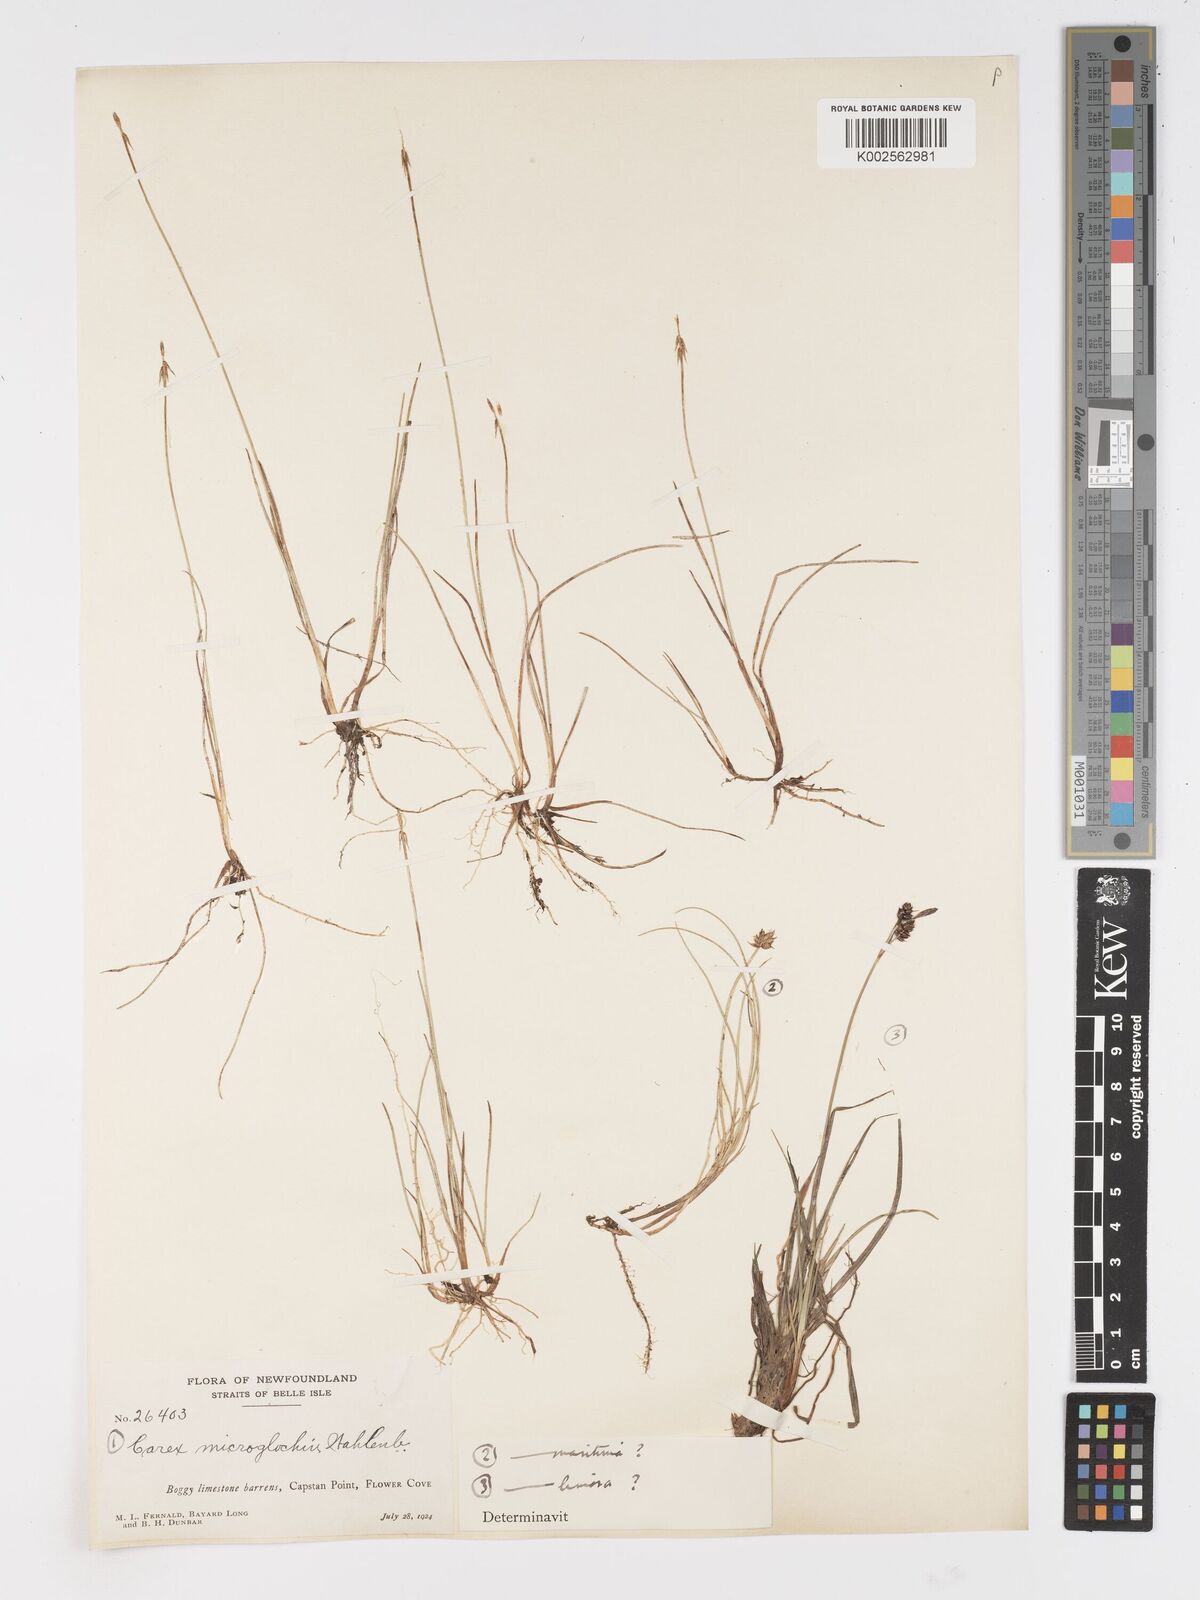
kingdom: Plantae
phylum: Tracheophyta
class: Liliopsida
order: Poales
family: Cyperaceae
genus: Carex
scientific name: Carex microglochin
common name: Bristle sedge
